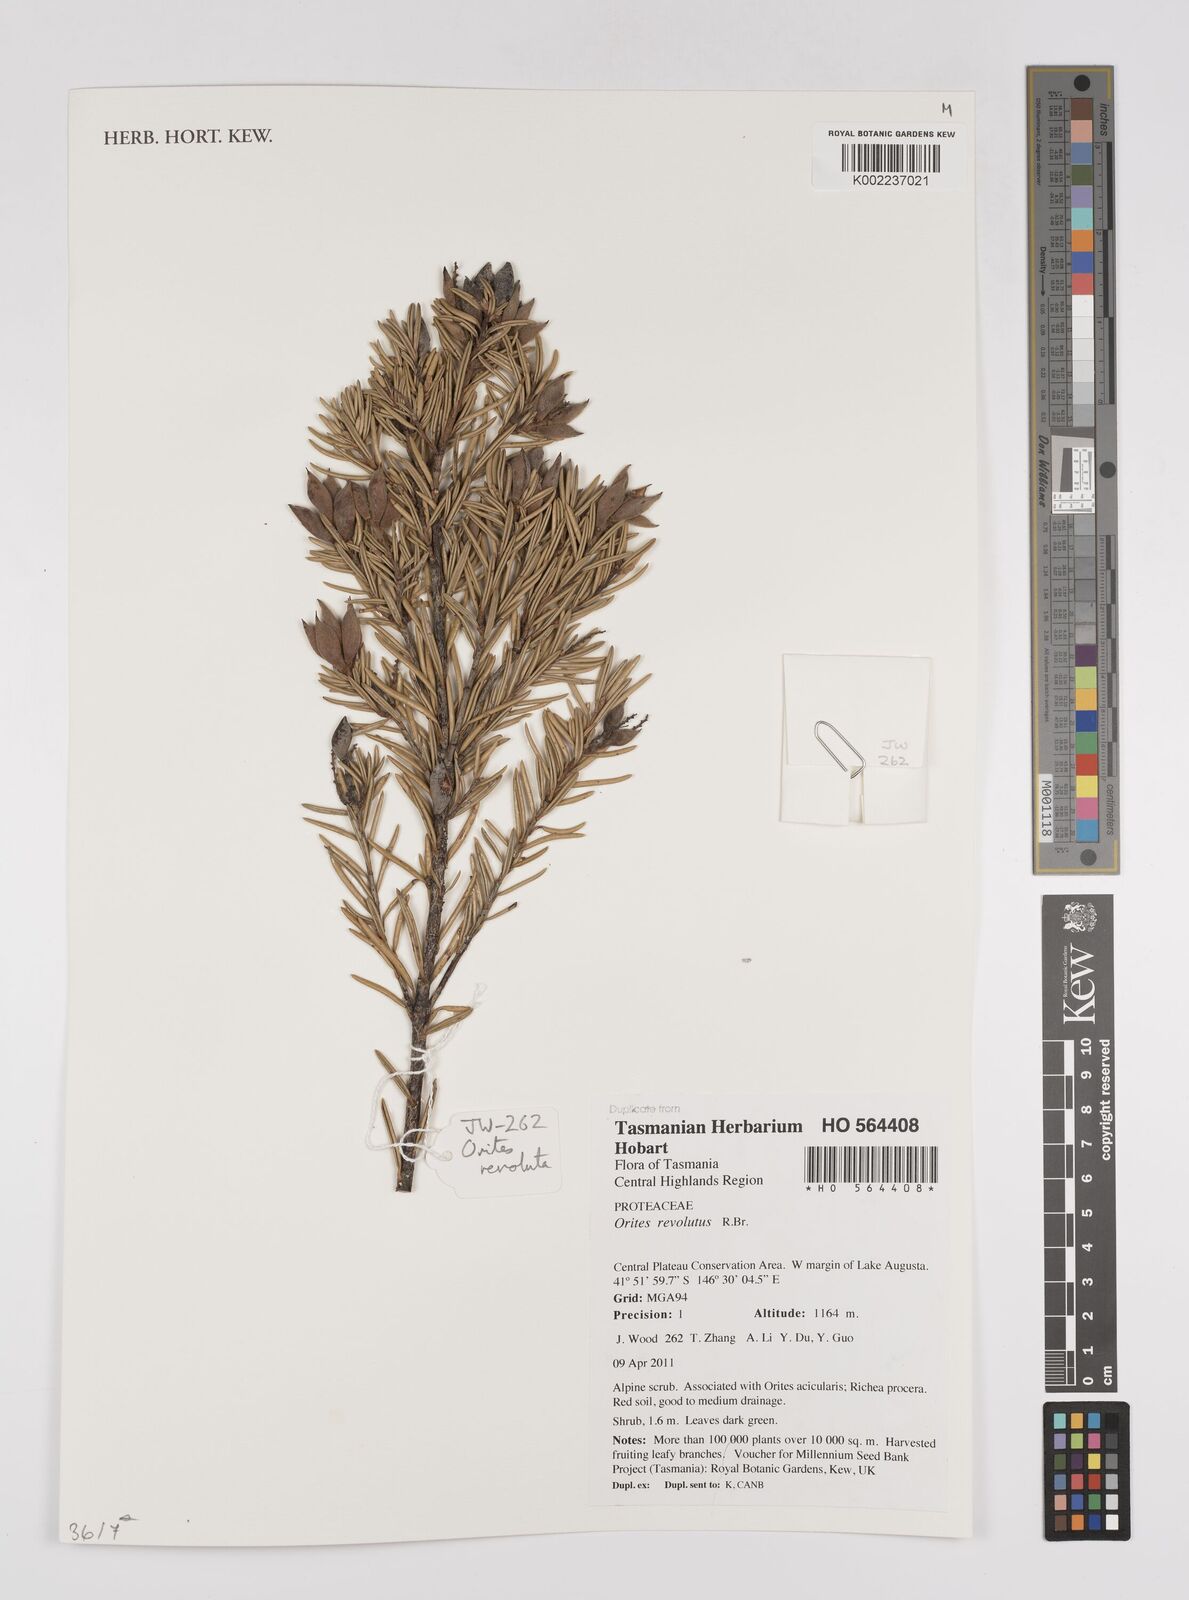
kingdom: Plantae
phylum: Tracheophyta
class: Magnoliopsida
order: Proteales
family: Proteaceae
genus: Orites
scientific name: Orites revolutus
